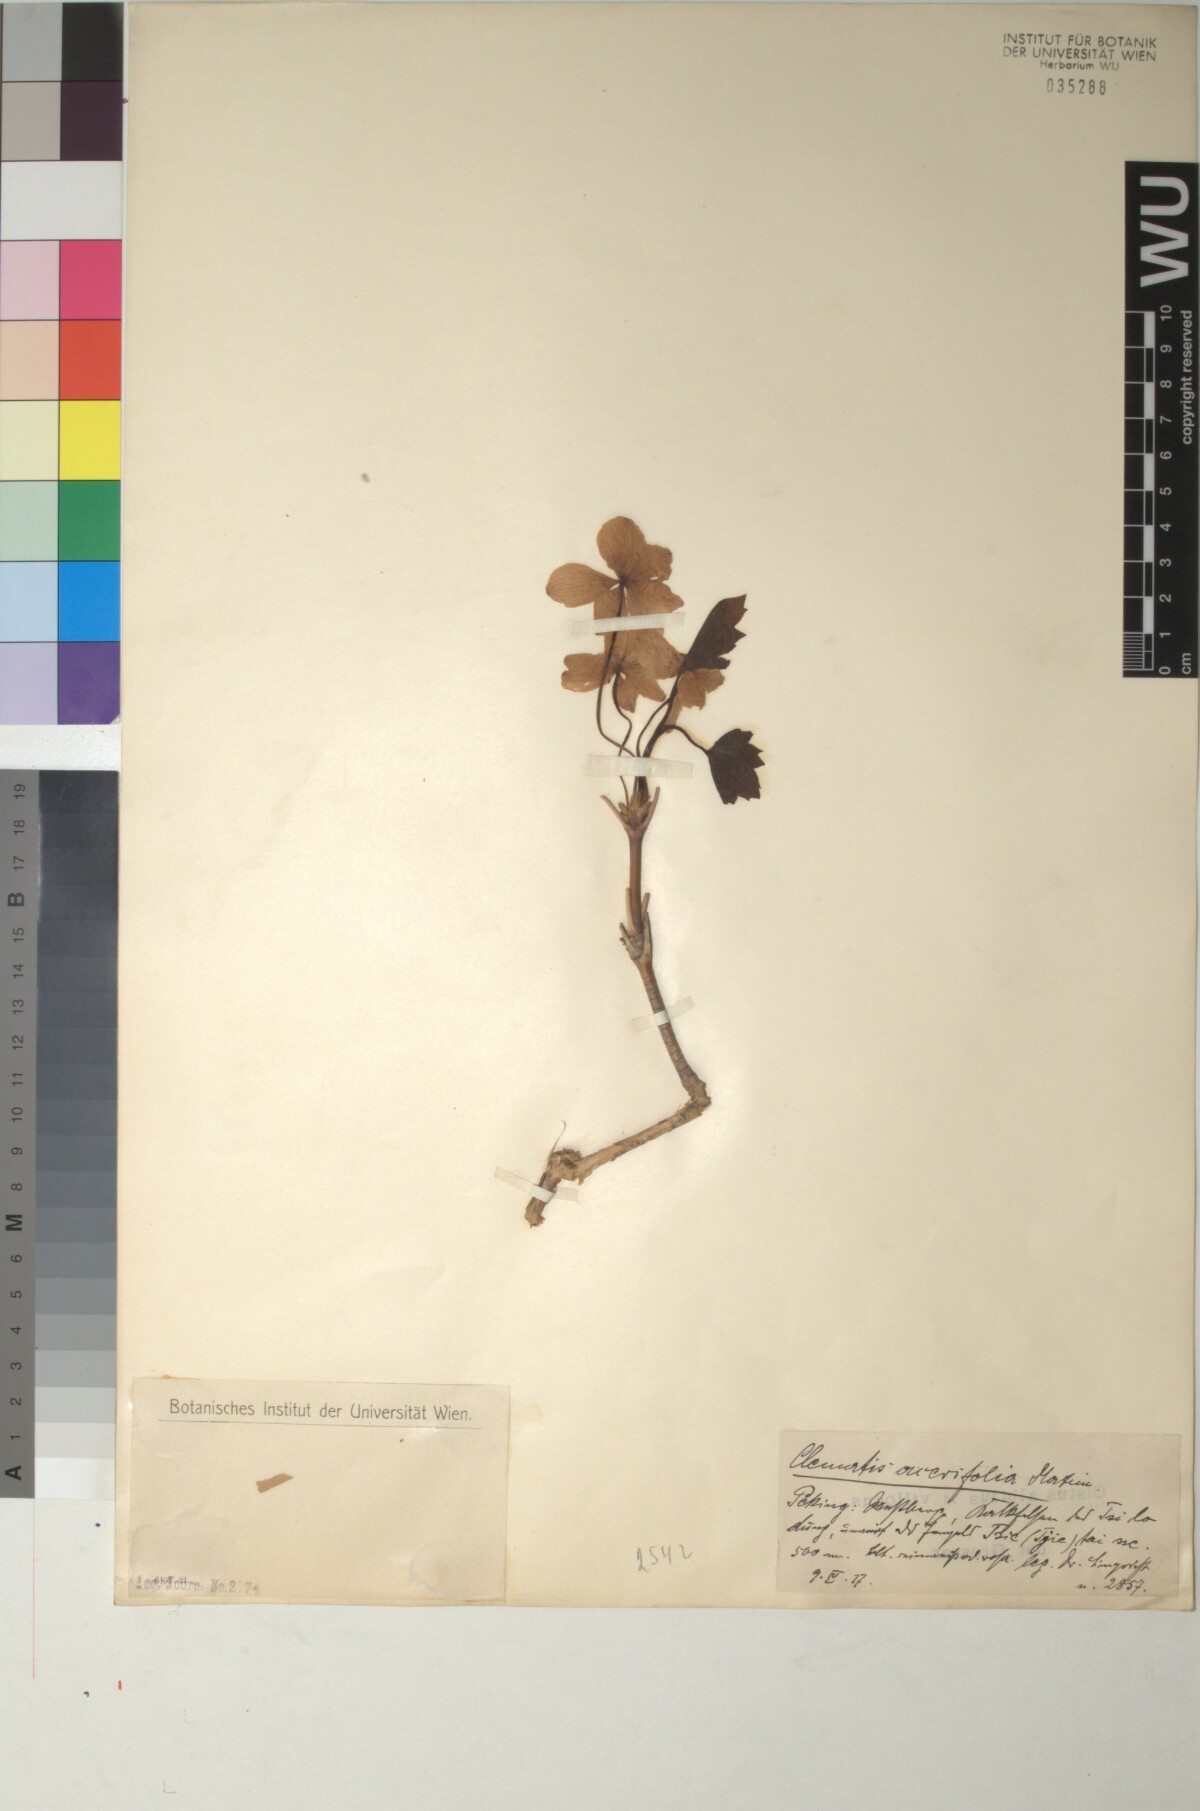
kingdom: Plantae
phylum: Tracheophyta
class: Magnoliopsida
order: Ranunculales
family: Ranunculaceae
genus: Clematis
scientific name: Clematis acerifolia
